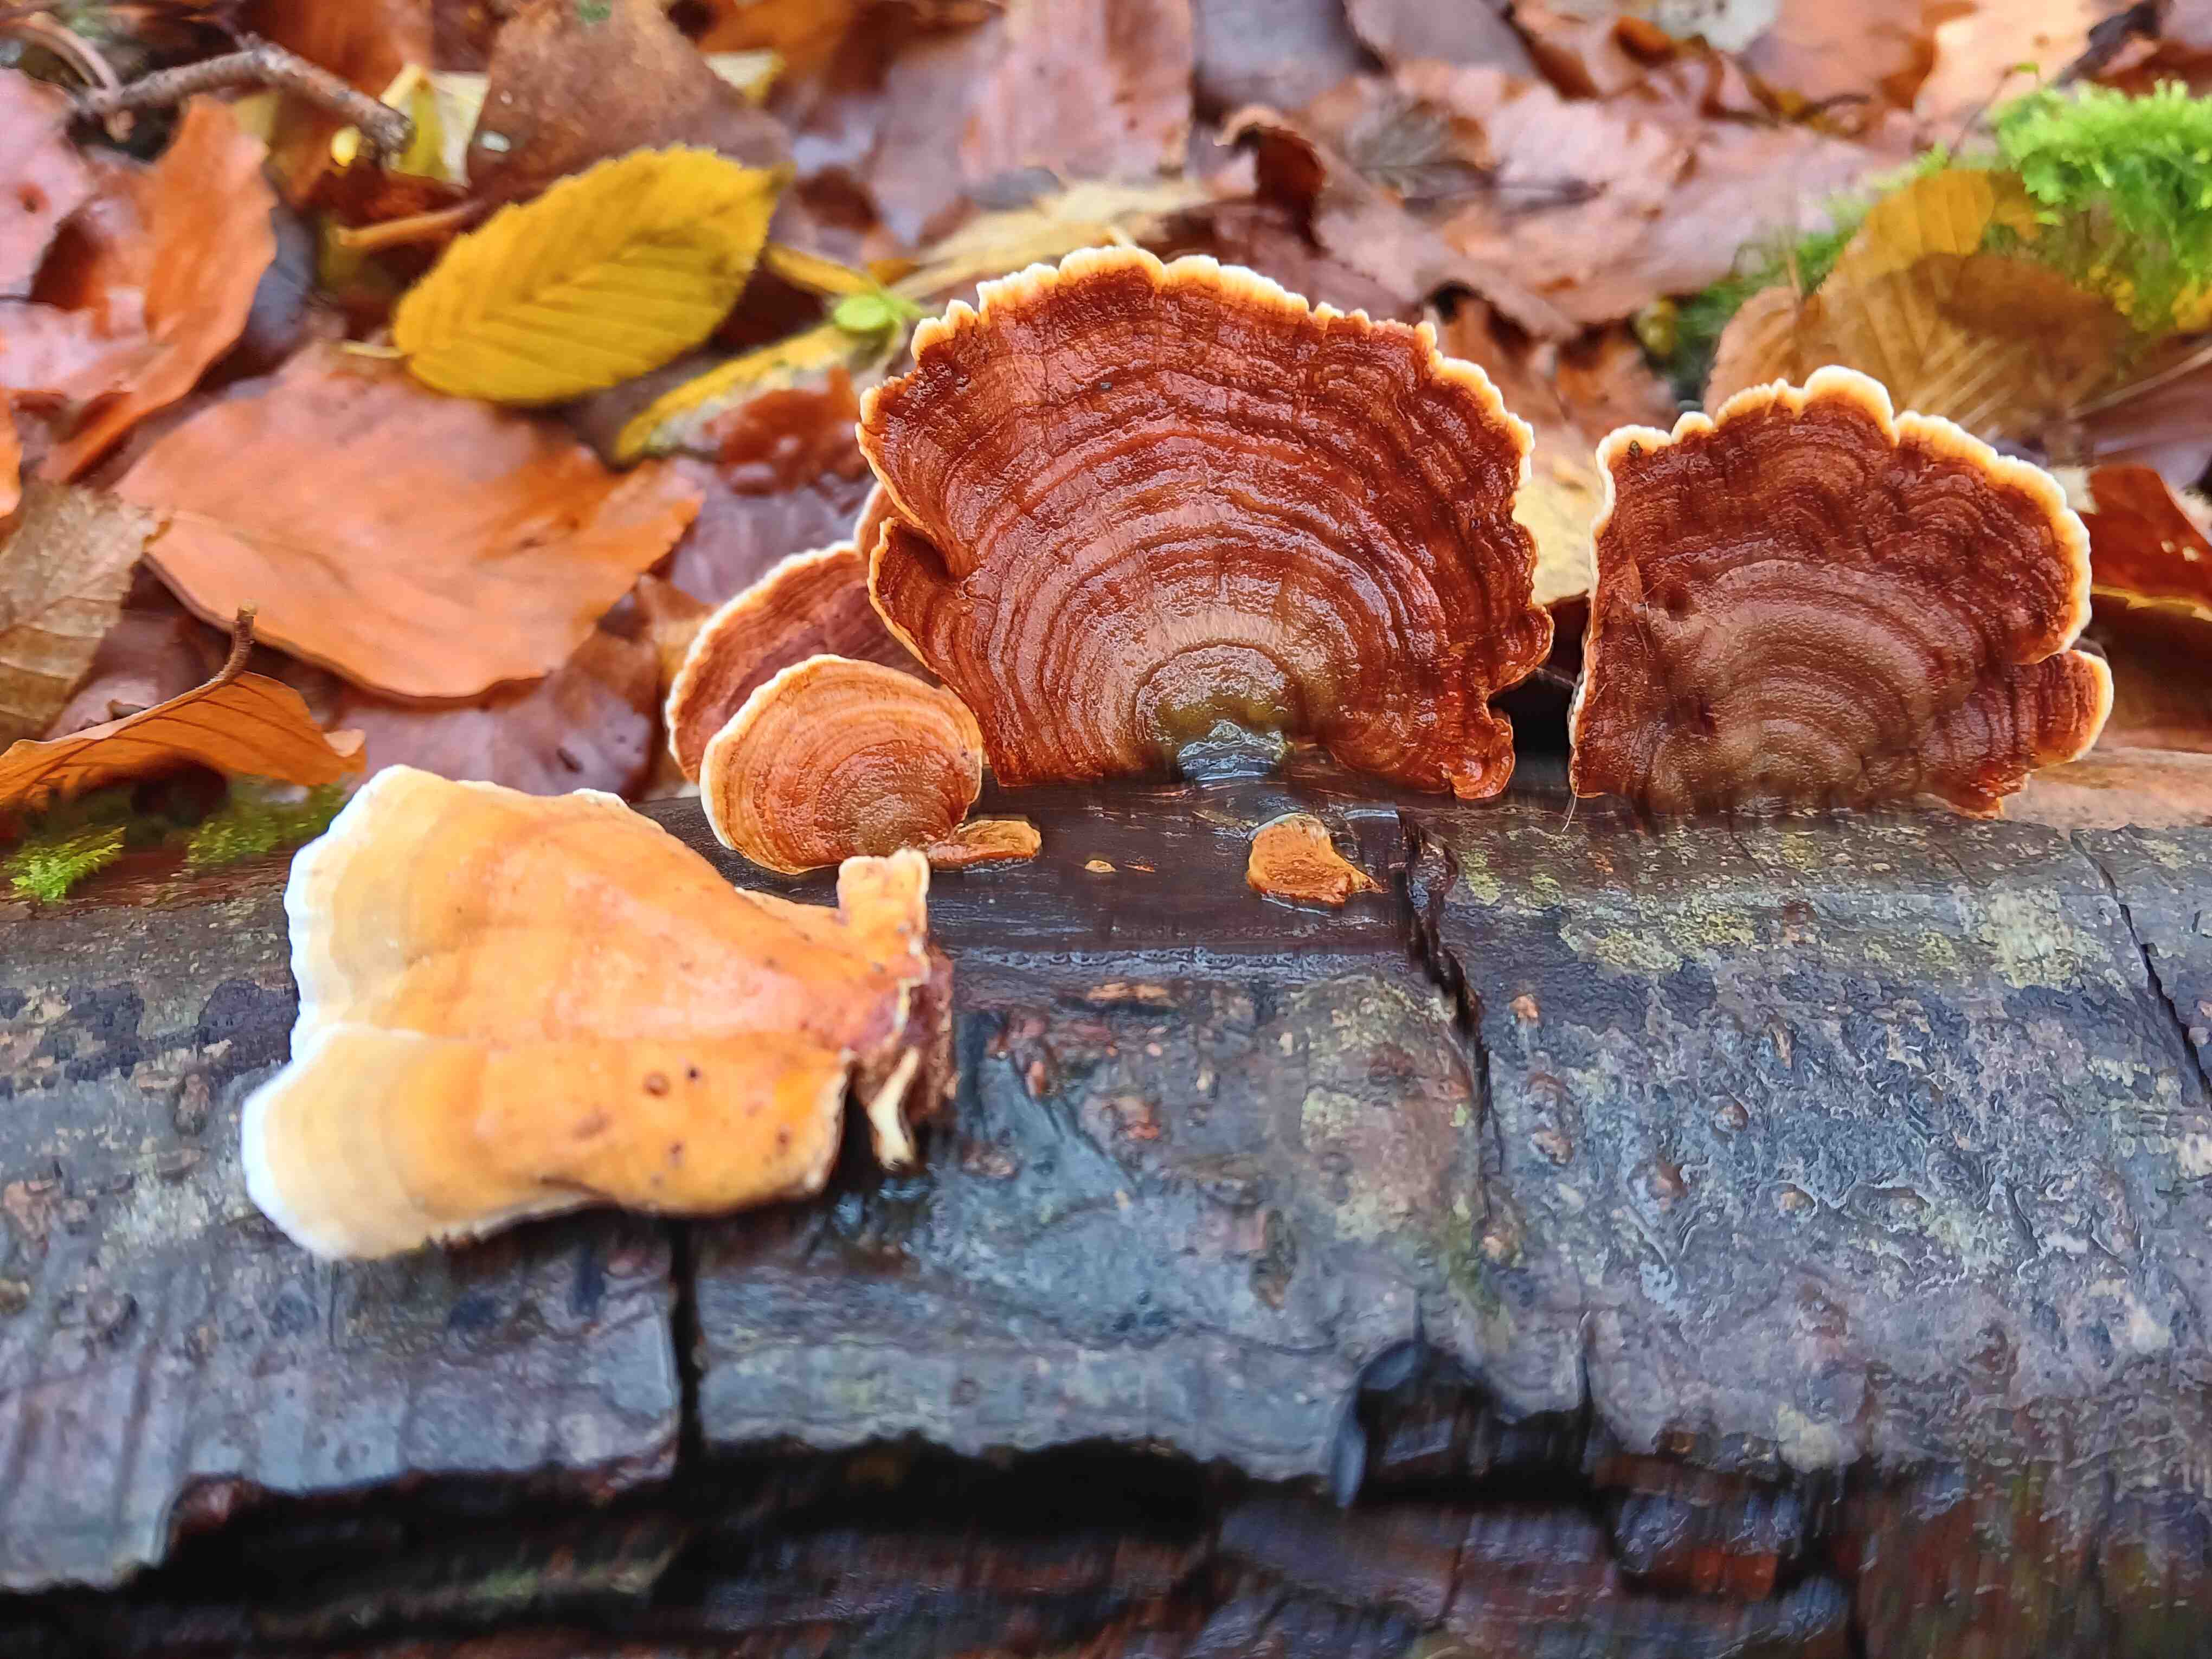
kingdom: Fungi
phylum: Basidiomycota
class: Agaricomycetes
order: Russulales
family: Stereaceae
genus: Stereum
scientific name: Stereum subtomentosum
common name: smuk lædersvamp
